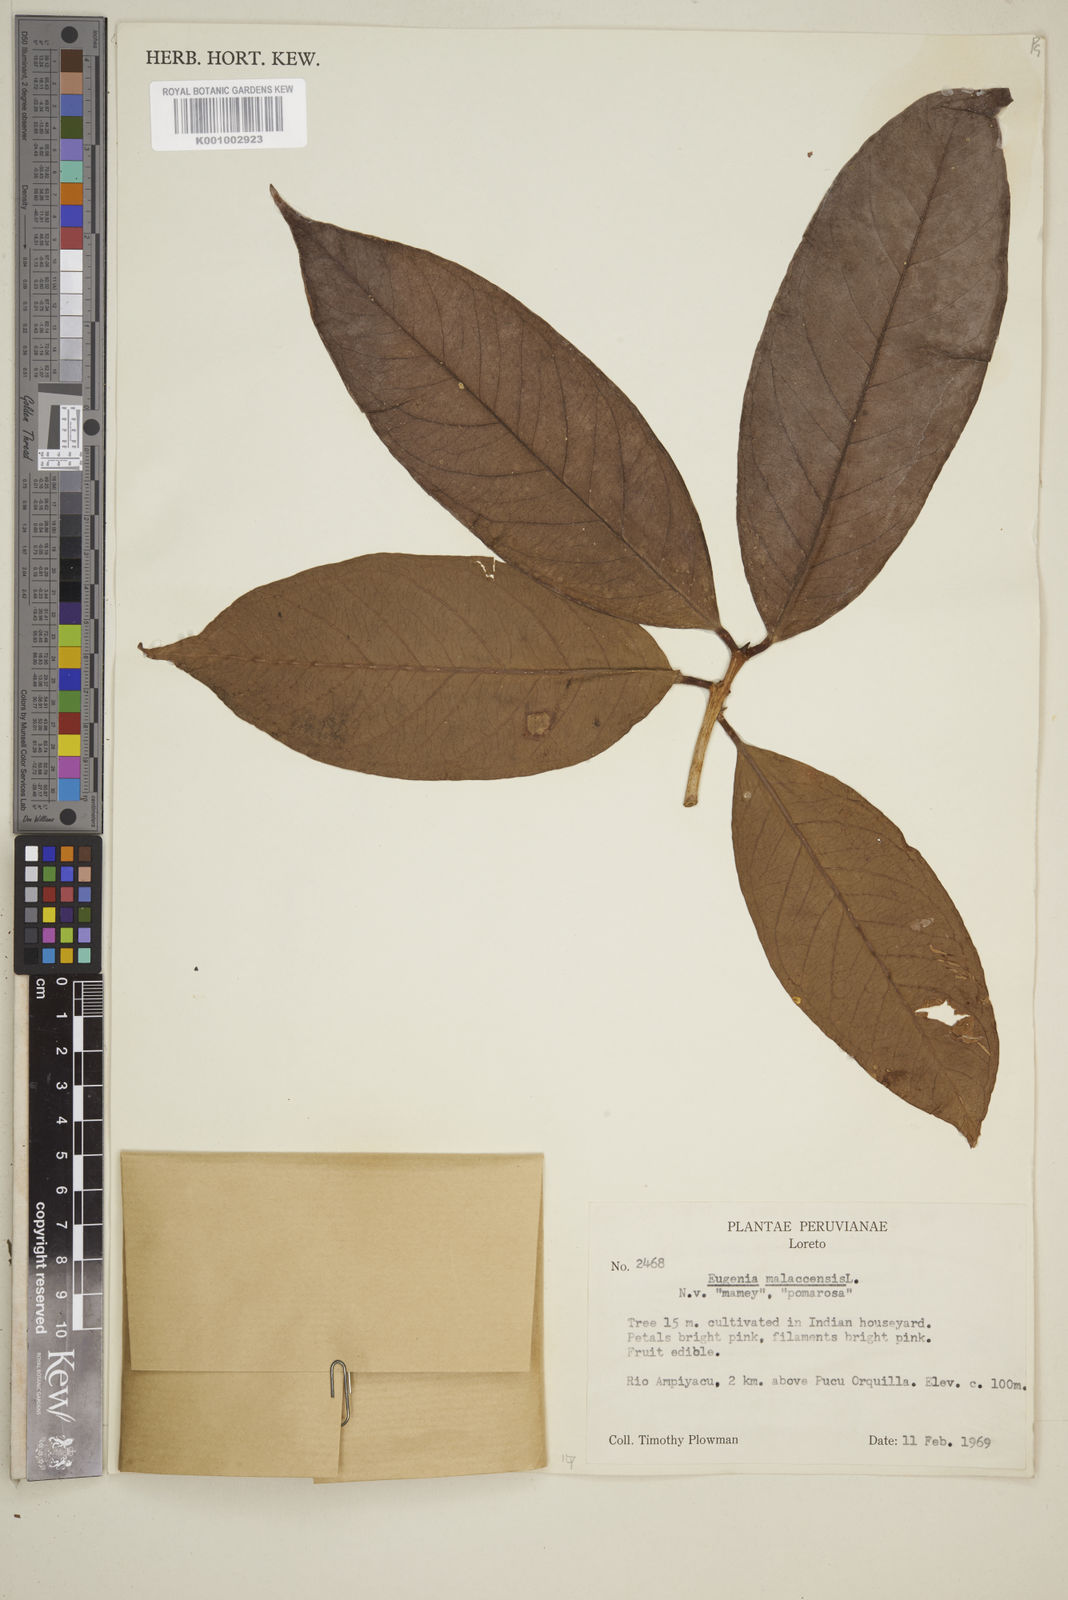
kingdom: Plantae
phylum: Tracheophyta
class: Magnoliopsida
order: Myrtales
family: Myrtaceae
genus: Syzygium
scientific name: Syzygium malaccense
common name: Malaysian apple
